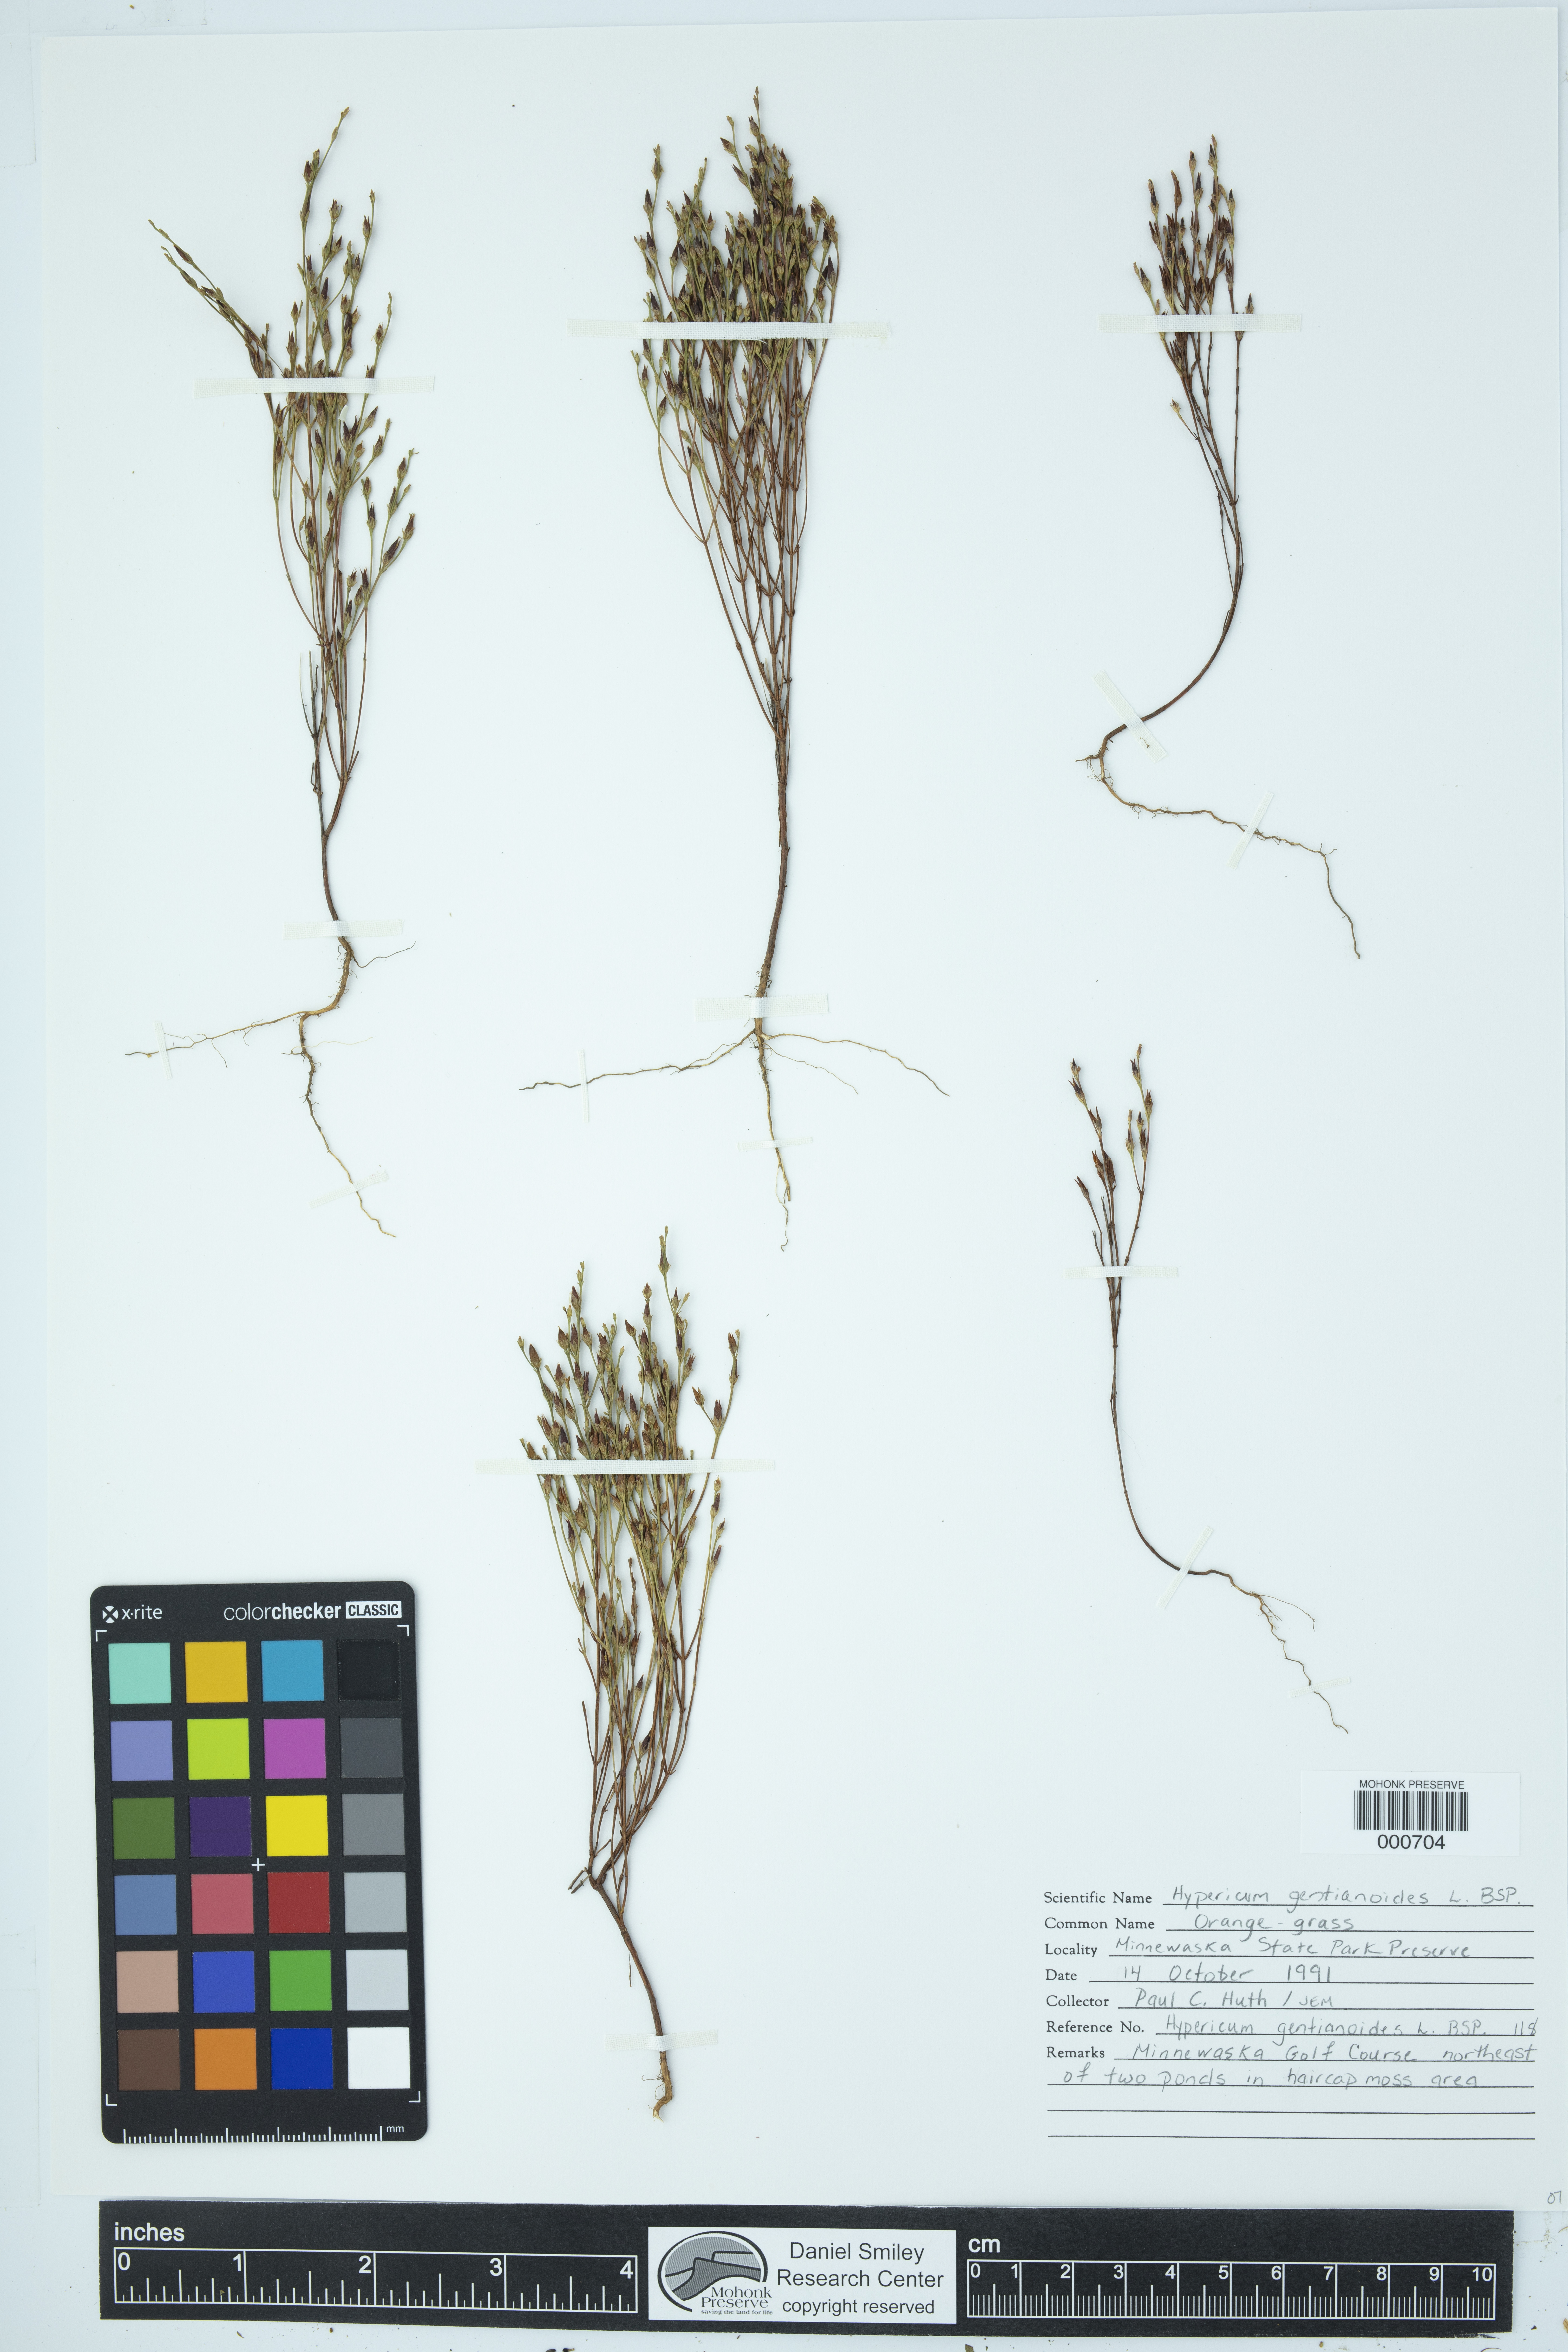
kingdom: Plantae
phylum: Tracheophyta
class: Magnoliopsida
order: Malpighiales
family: Hypericaceae
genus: Hypericum
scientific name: Hypericum gentianoides
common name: Gentian-leaved st. john's-wort
